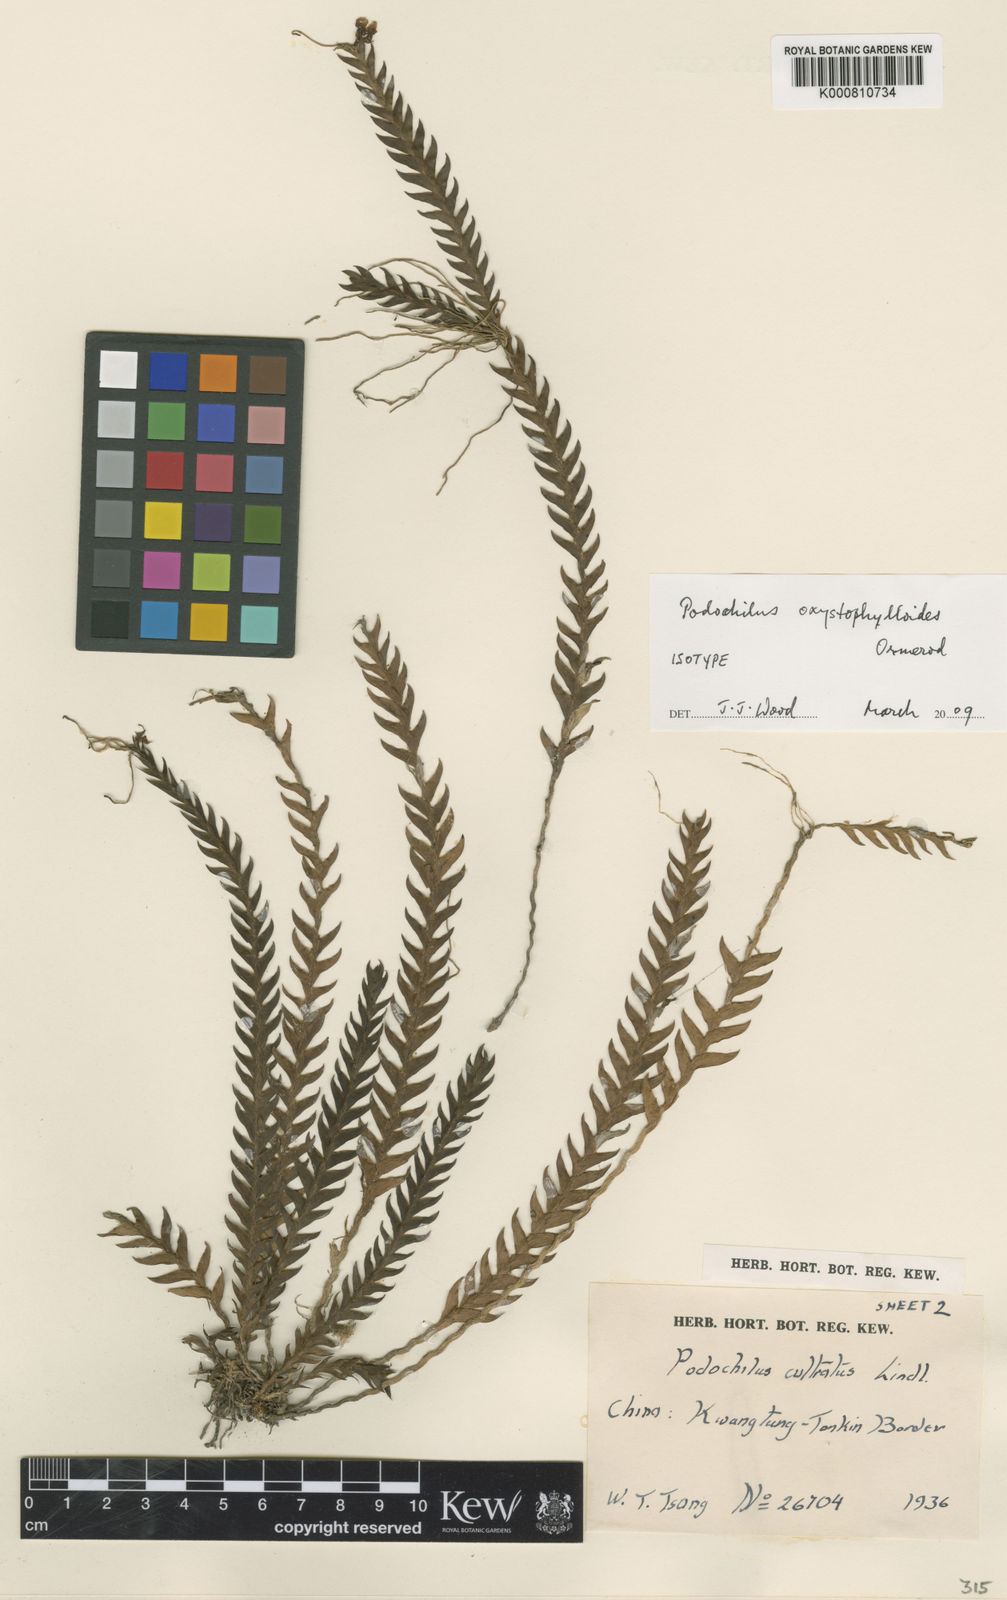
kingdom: Animalia
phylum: Arthropoda
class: Insecta
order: Coleoptera
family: Scarabaeidae
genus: Cyphochilus
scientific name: Cyphochilus
